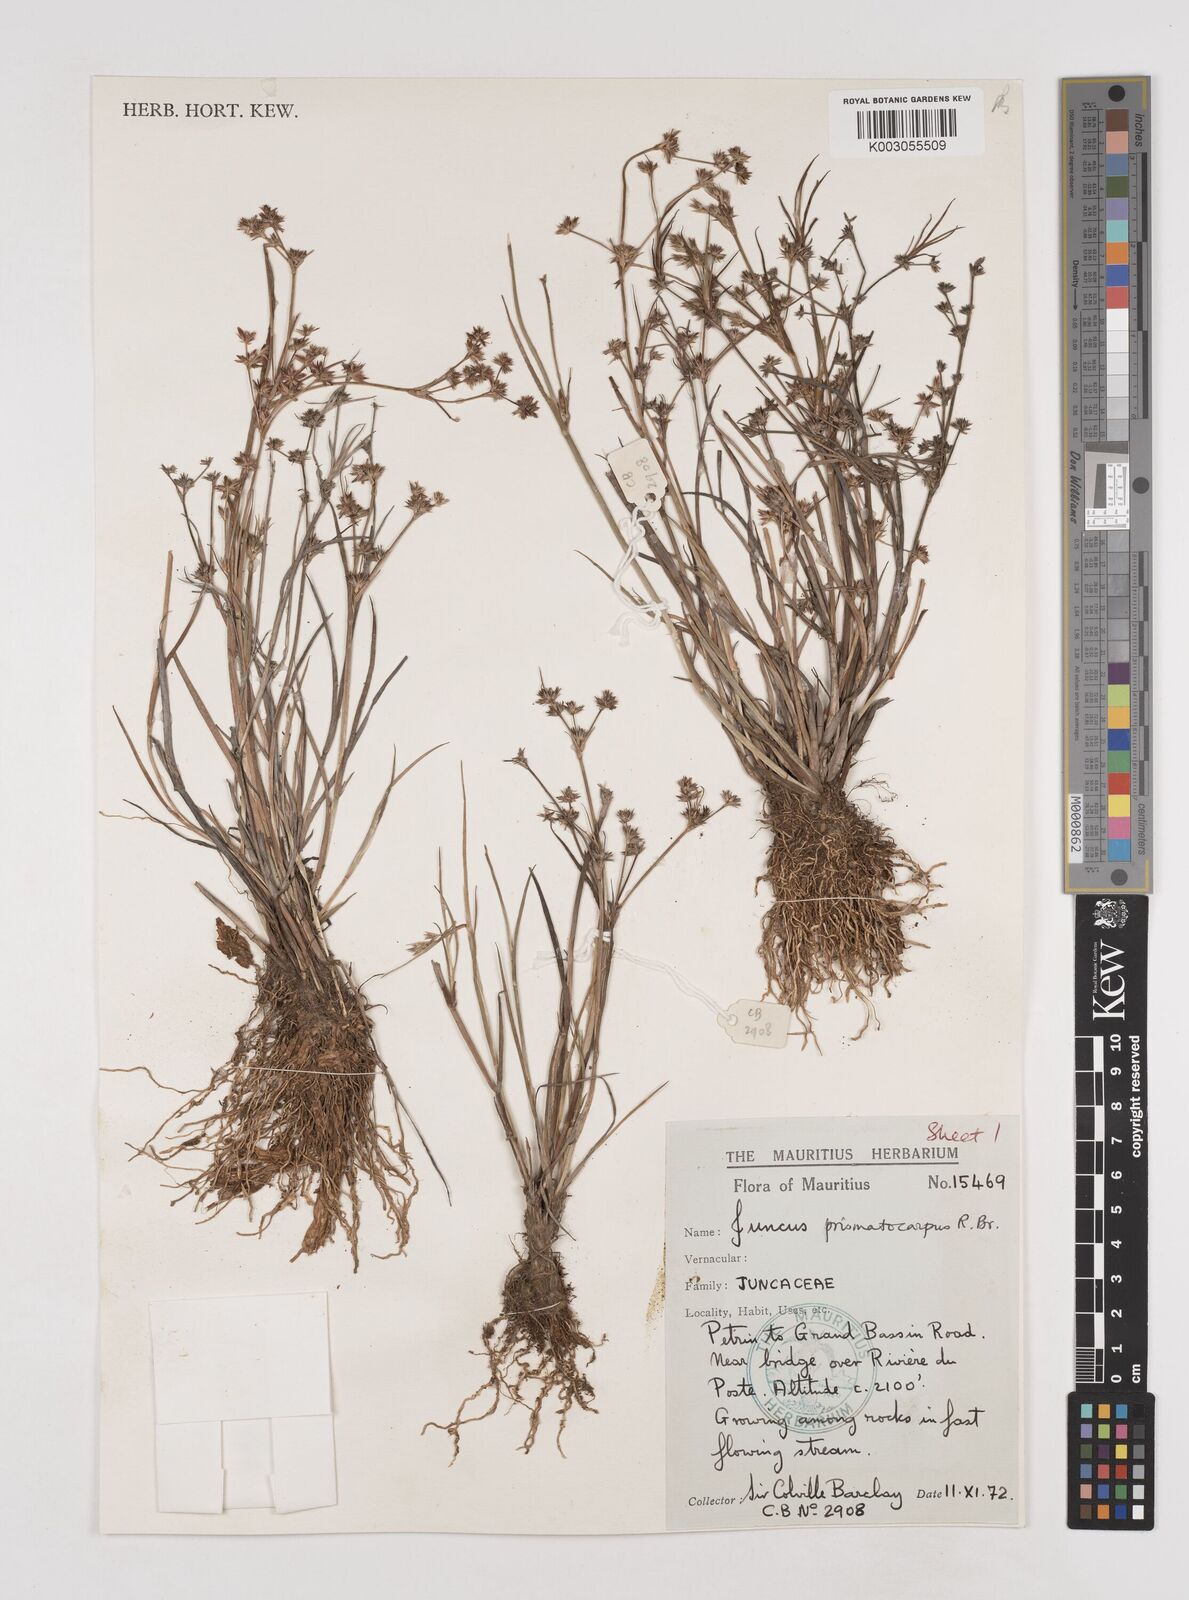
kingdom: Plantae
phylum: Tracheophyta
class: Liliopsida
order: Poales
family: Juncaceae
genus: Juncus
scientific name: Juncus prismatocarpus
